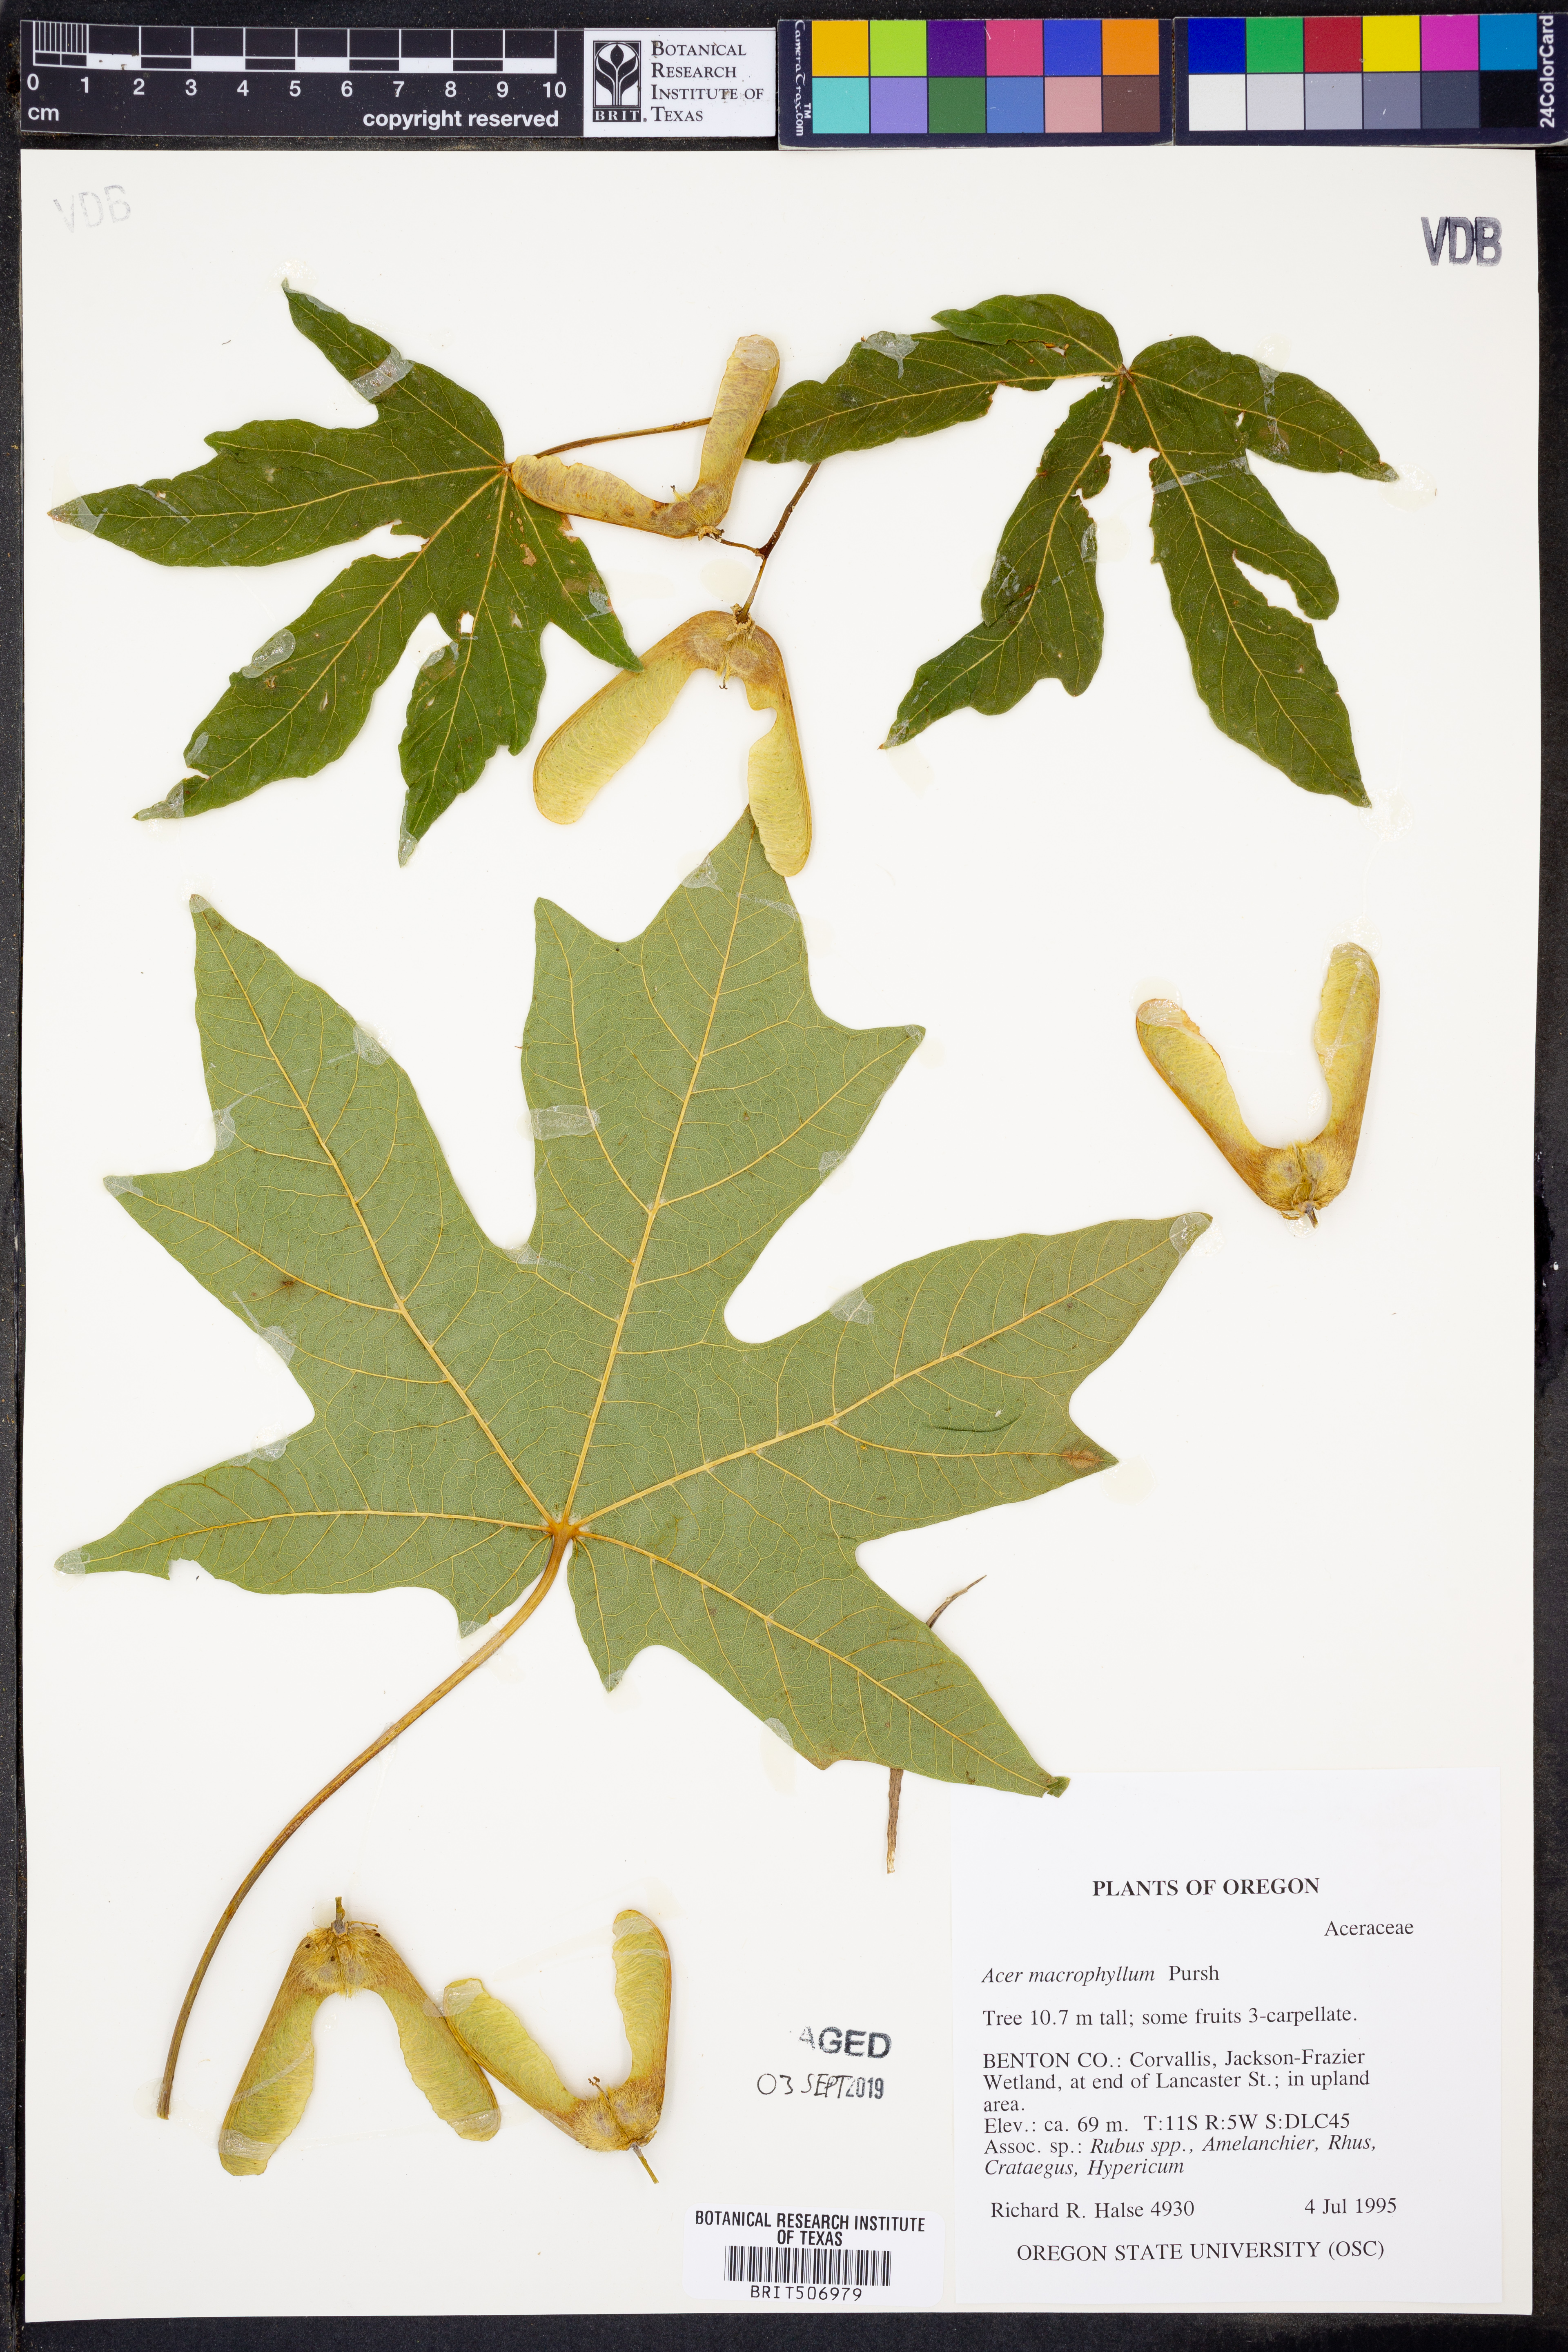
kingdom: Plantae
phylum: Tracheophyta
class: Magnoliopsida
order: Sapindales
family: Sapindaceae
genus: Acer
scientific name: Acer macrophyllum
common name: Oregon maple
